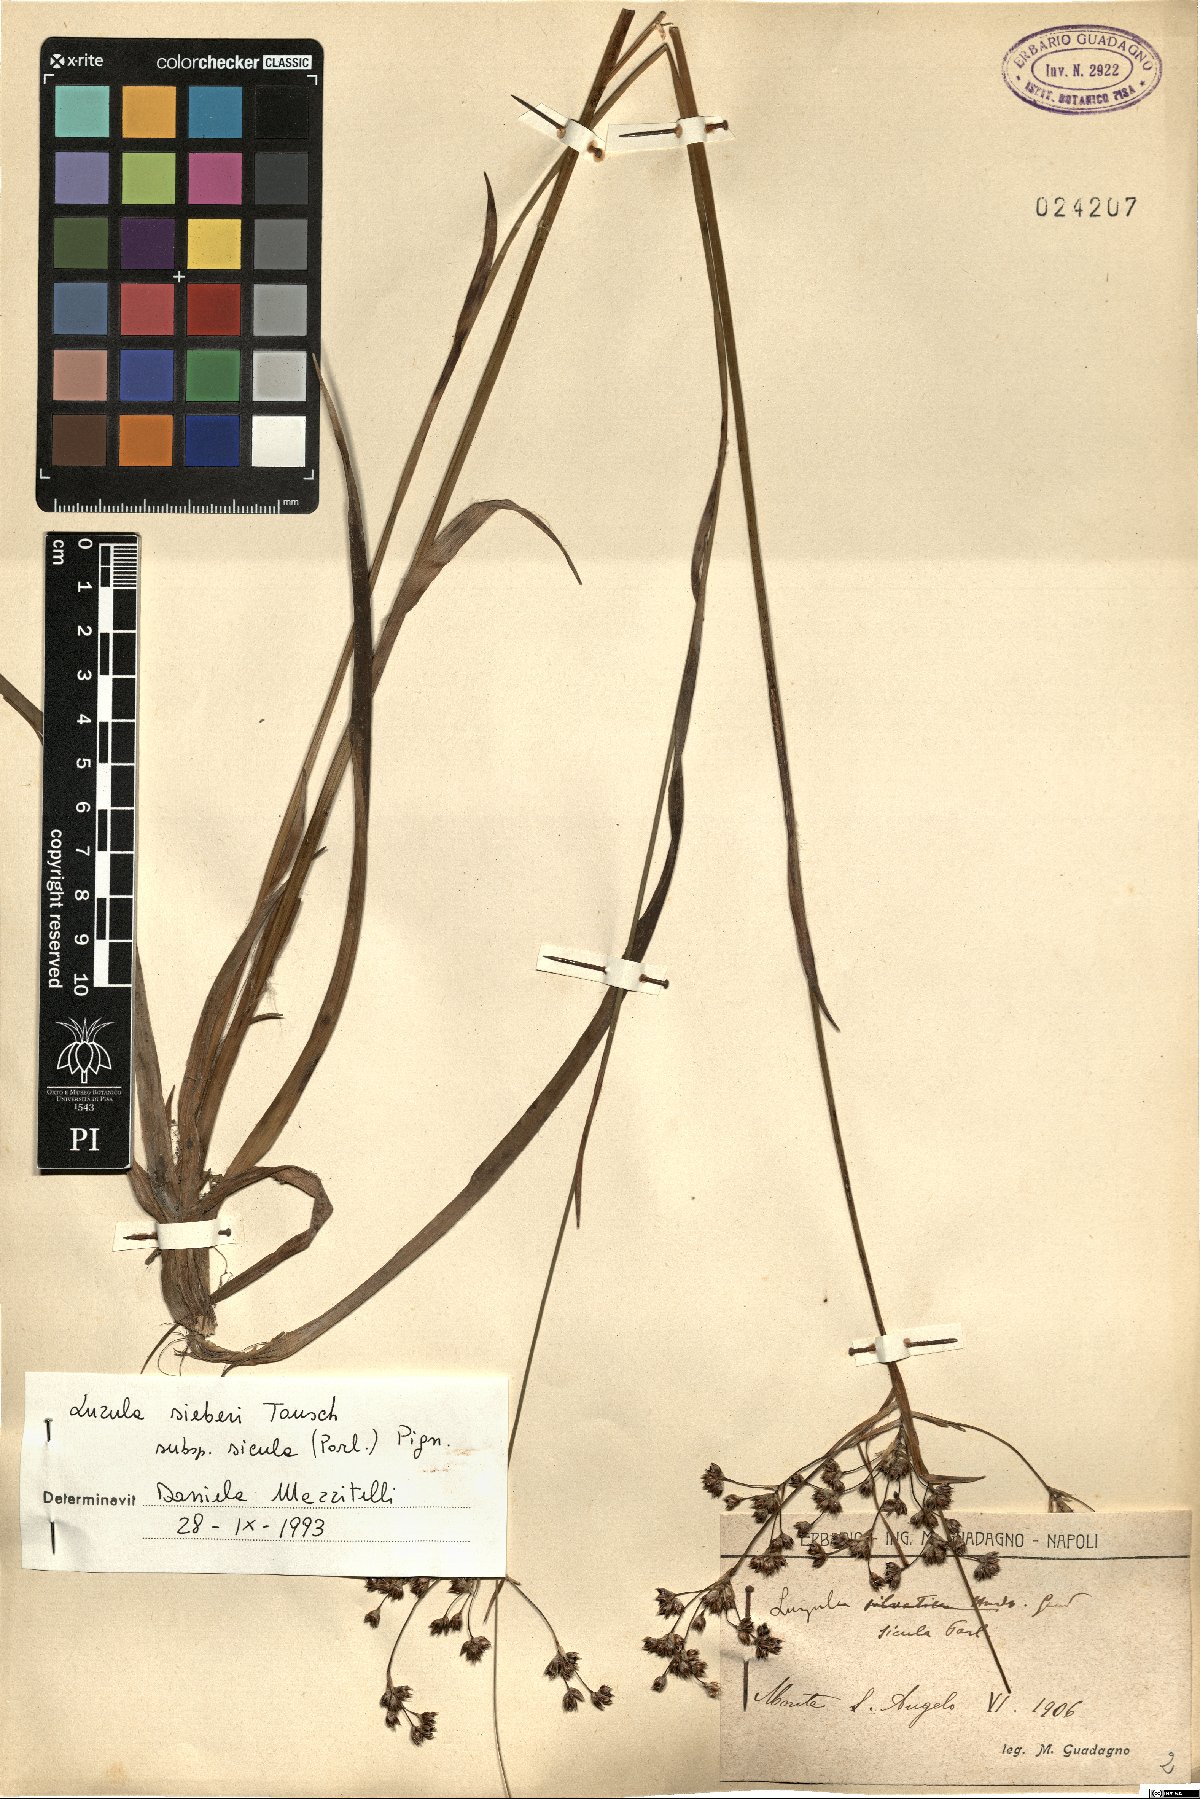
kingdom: Plantae
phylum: Tracheophyta
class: Liliopsida
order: Poales
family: Juncaceae
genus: Luzula
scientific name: Luzula sylvatica
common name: Great wood-rush
